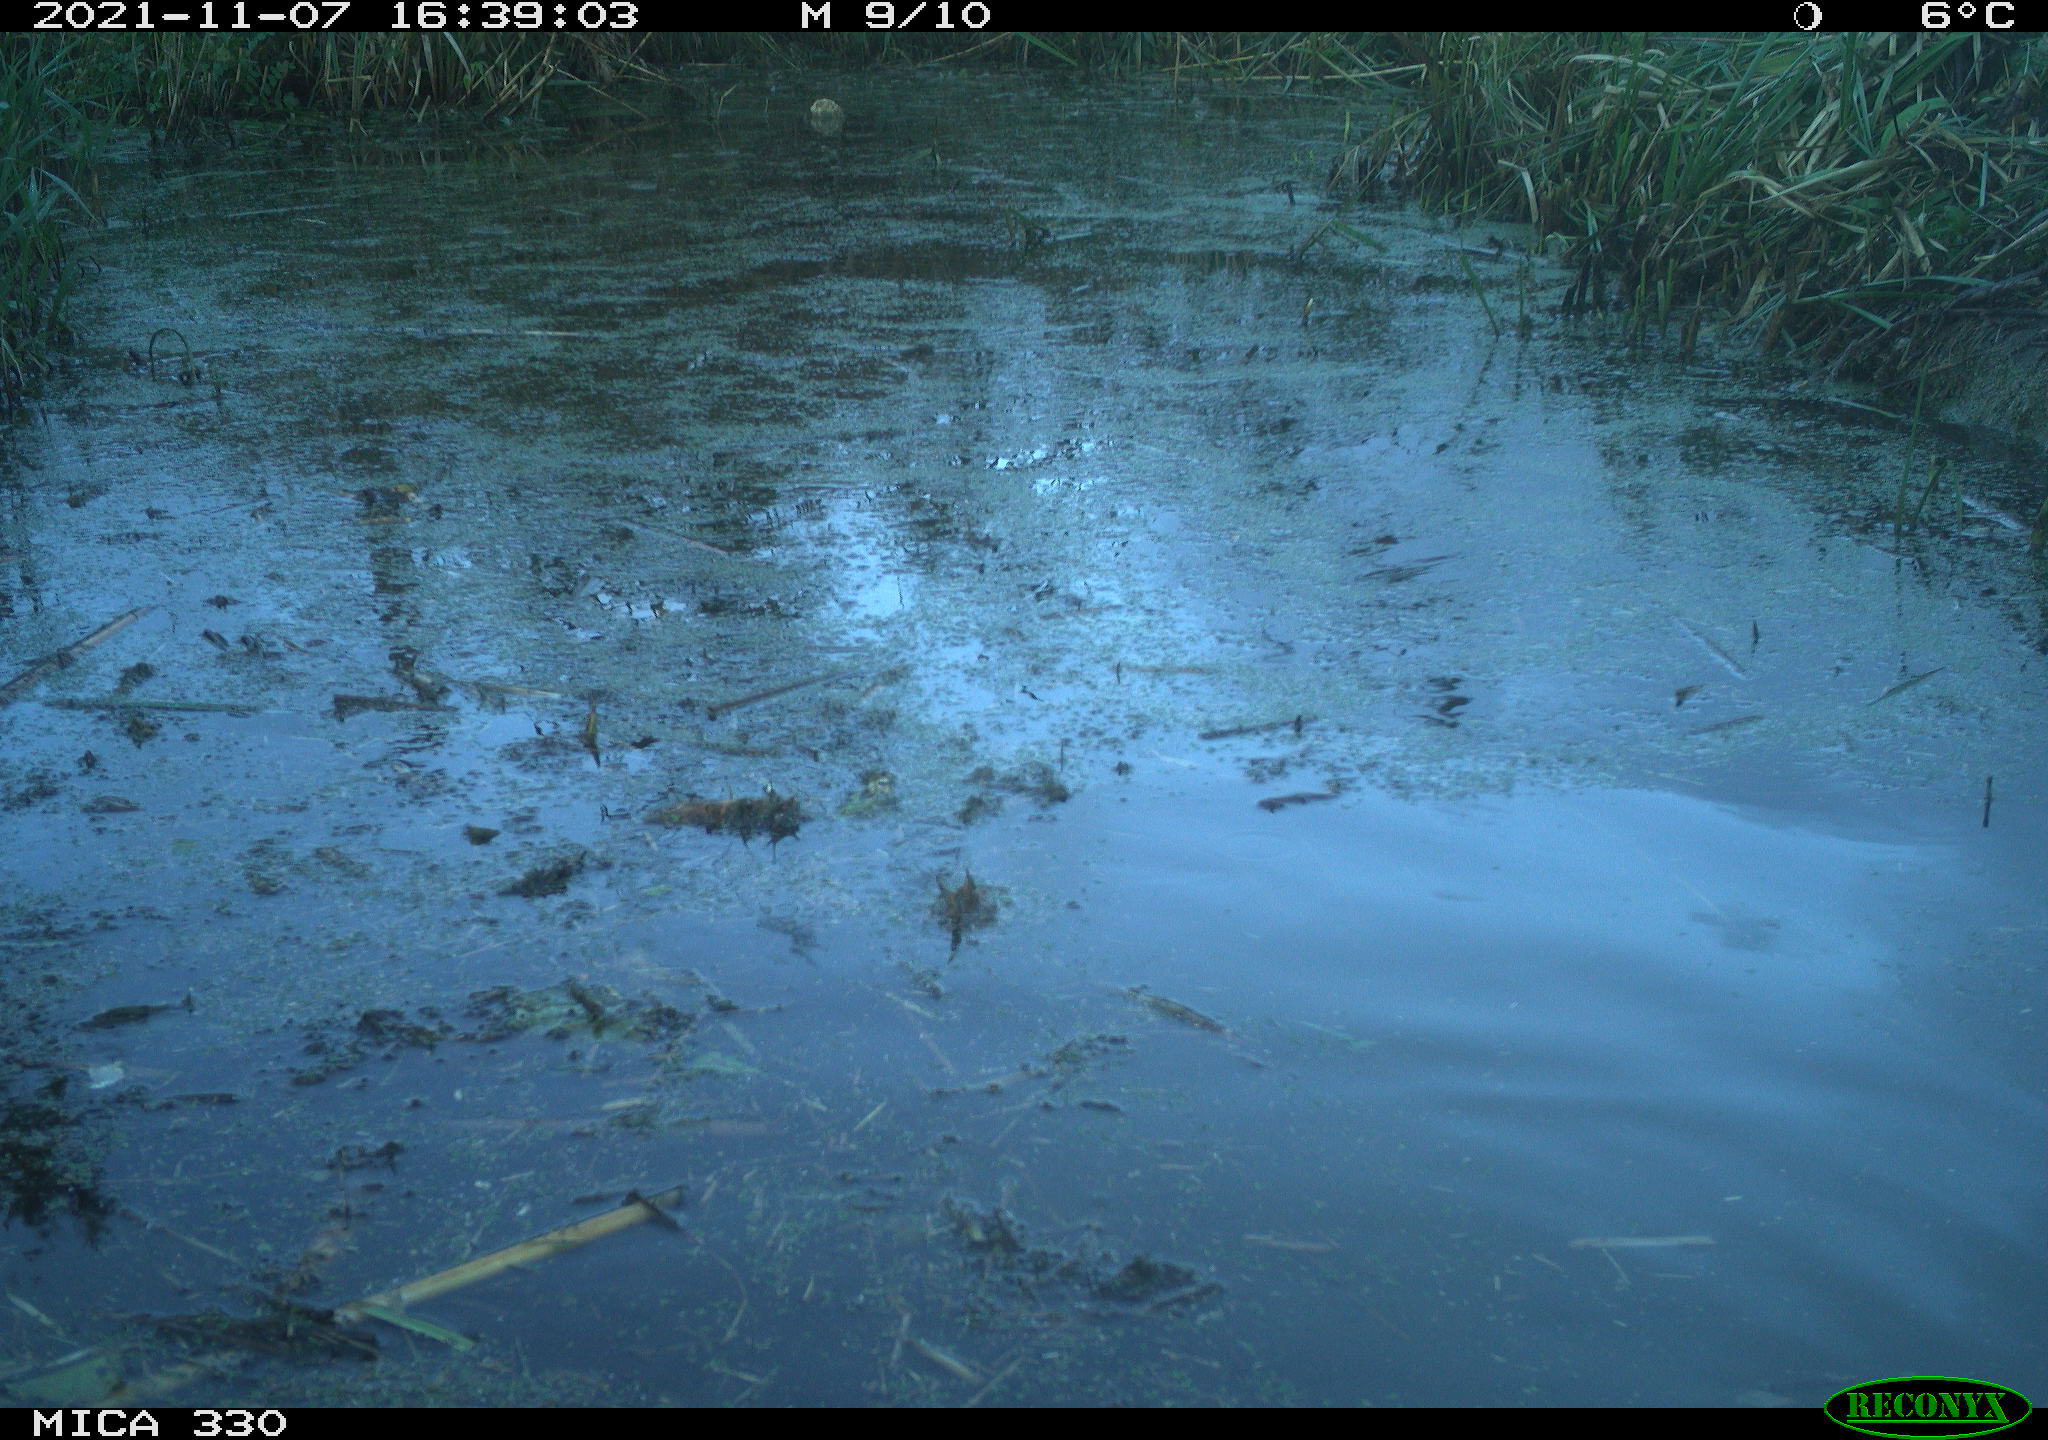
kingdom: Animalia
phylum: Chordata
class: Aves
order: Gruiformes
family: Rallidae
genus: Gallinula
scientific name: Gallinula chloropus
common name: Common moorhen
